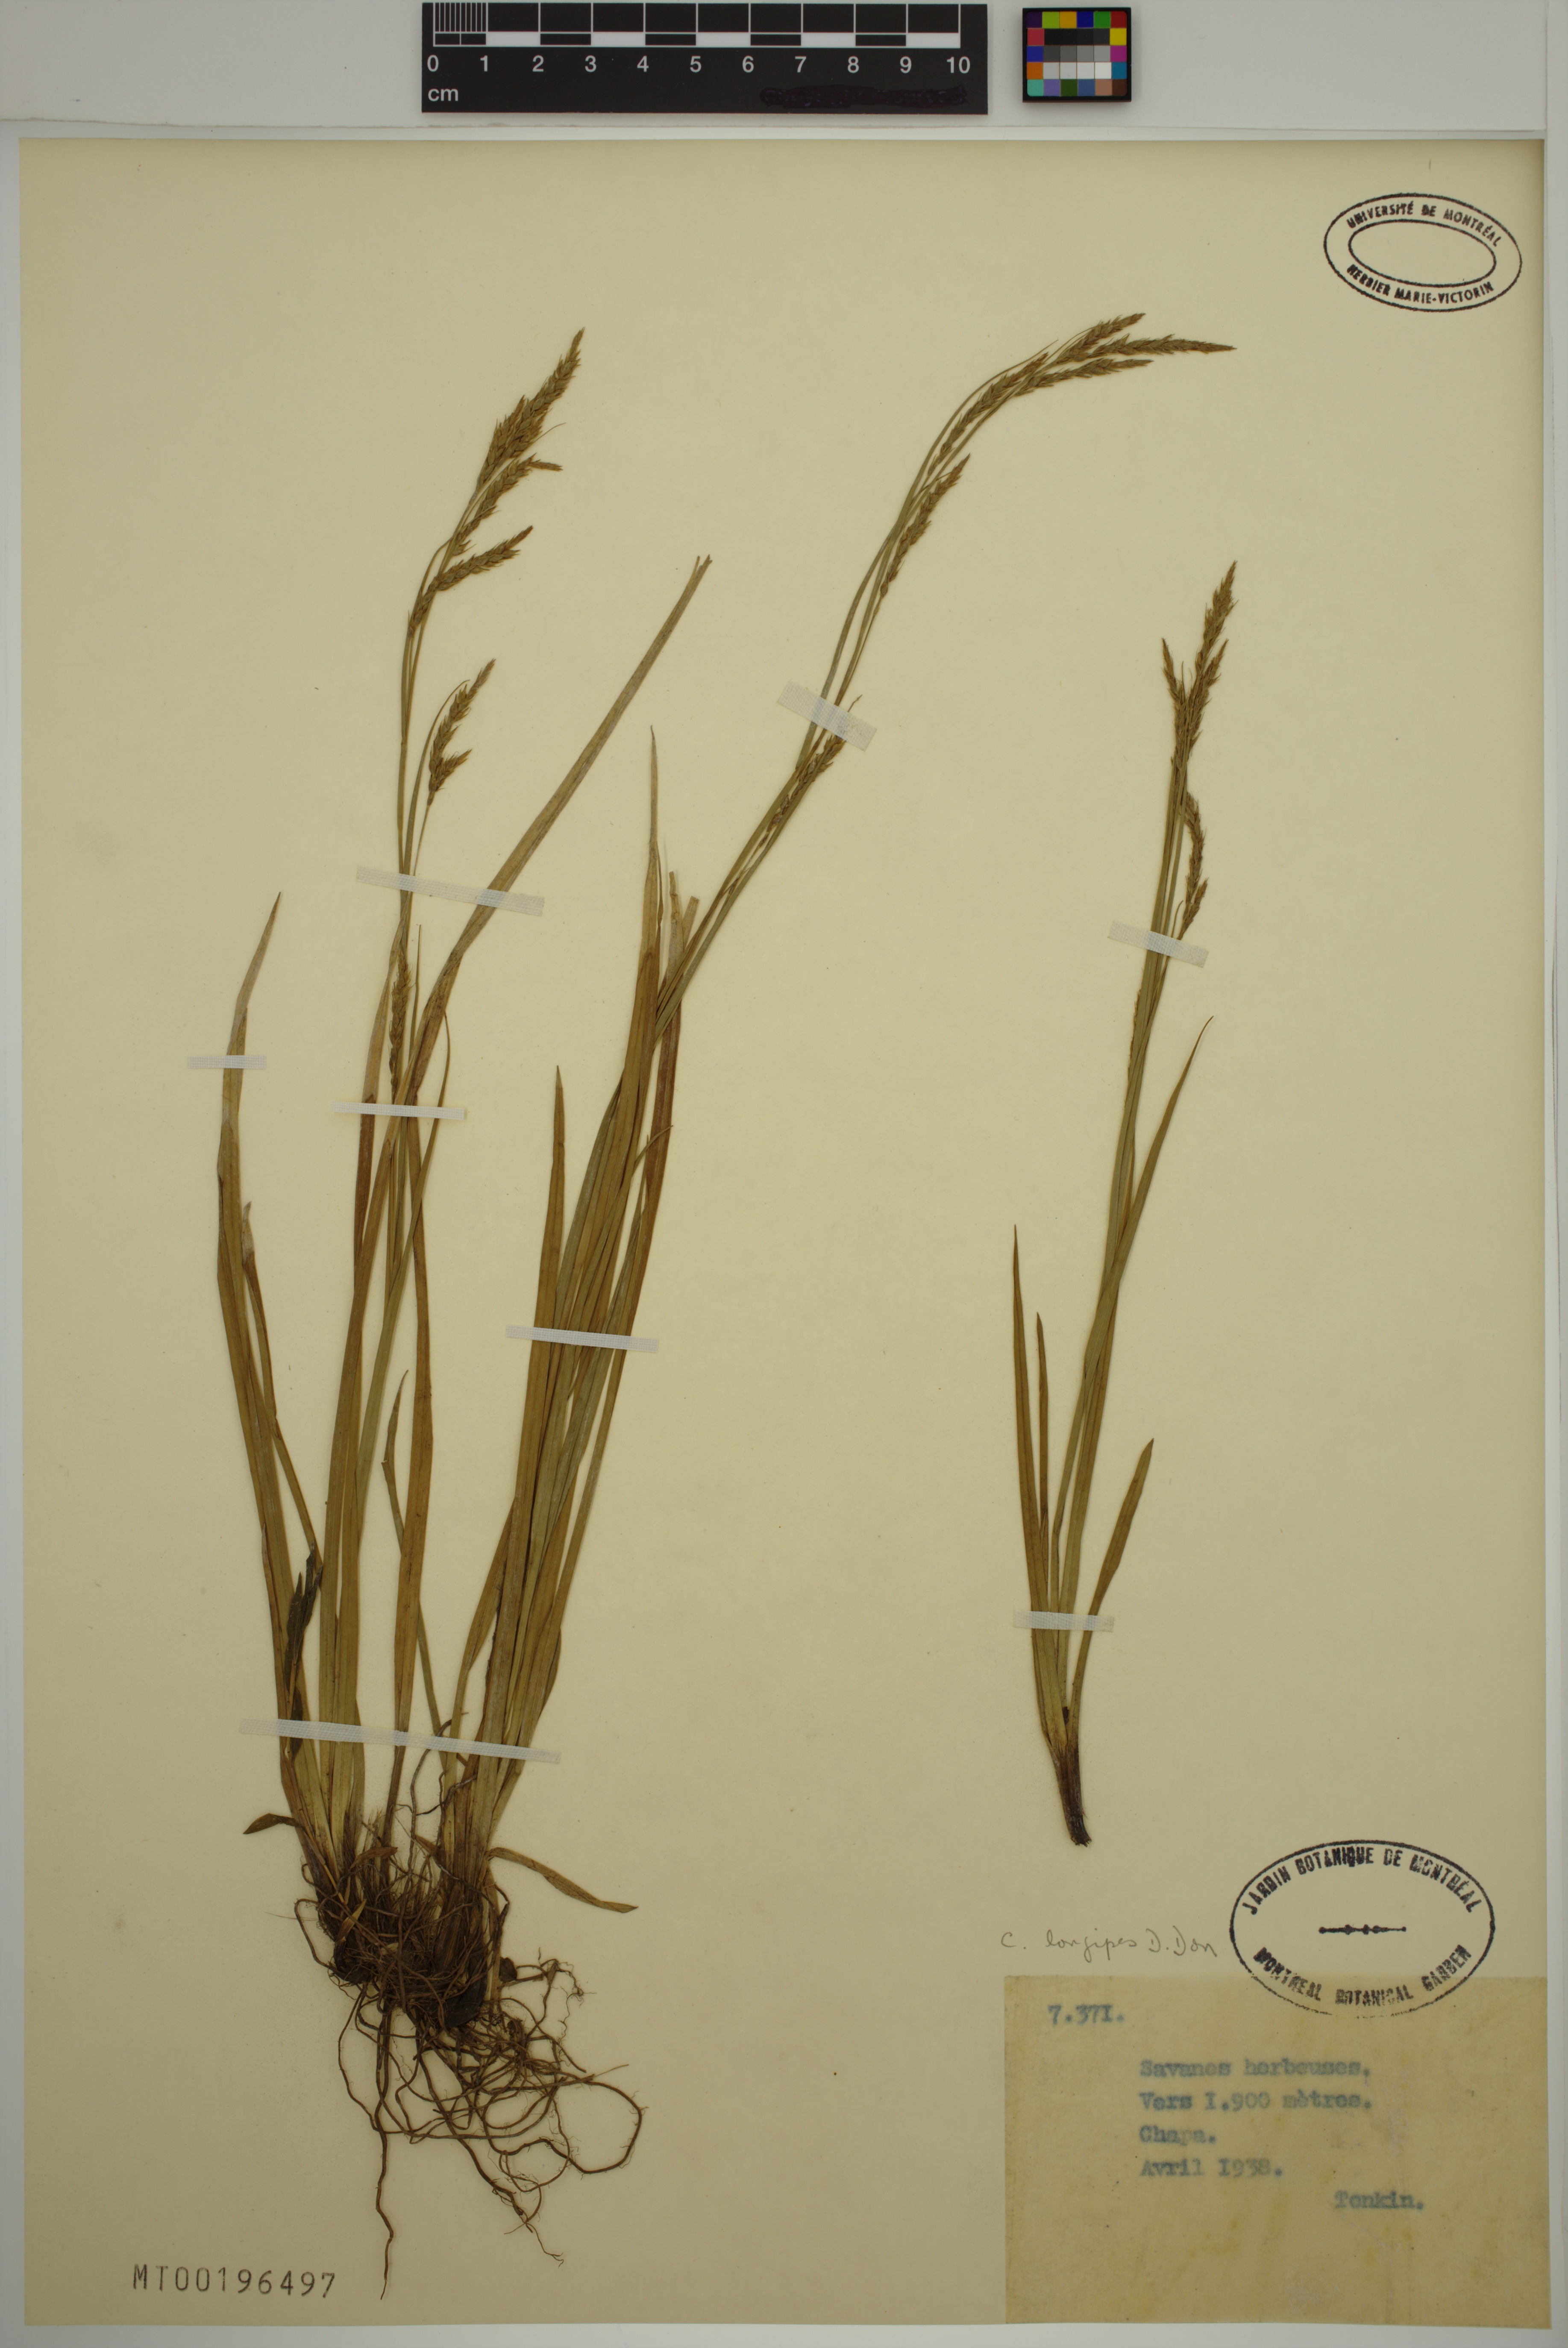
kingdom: Plantae
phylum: Tracheophyta
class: Liliopsida
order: Poales
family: Cyperaceae
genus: Carex
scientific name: Carex longipes
